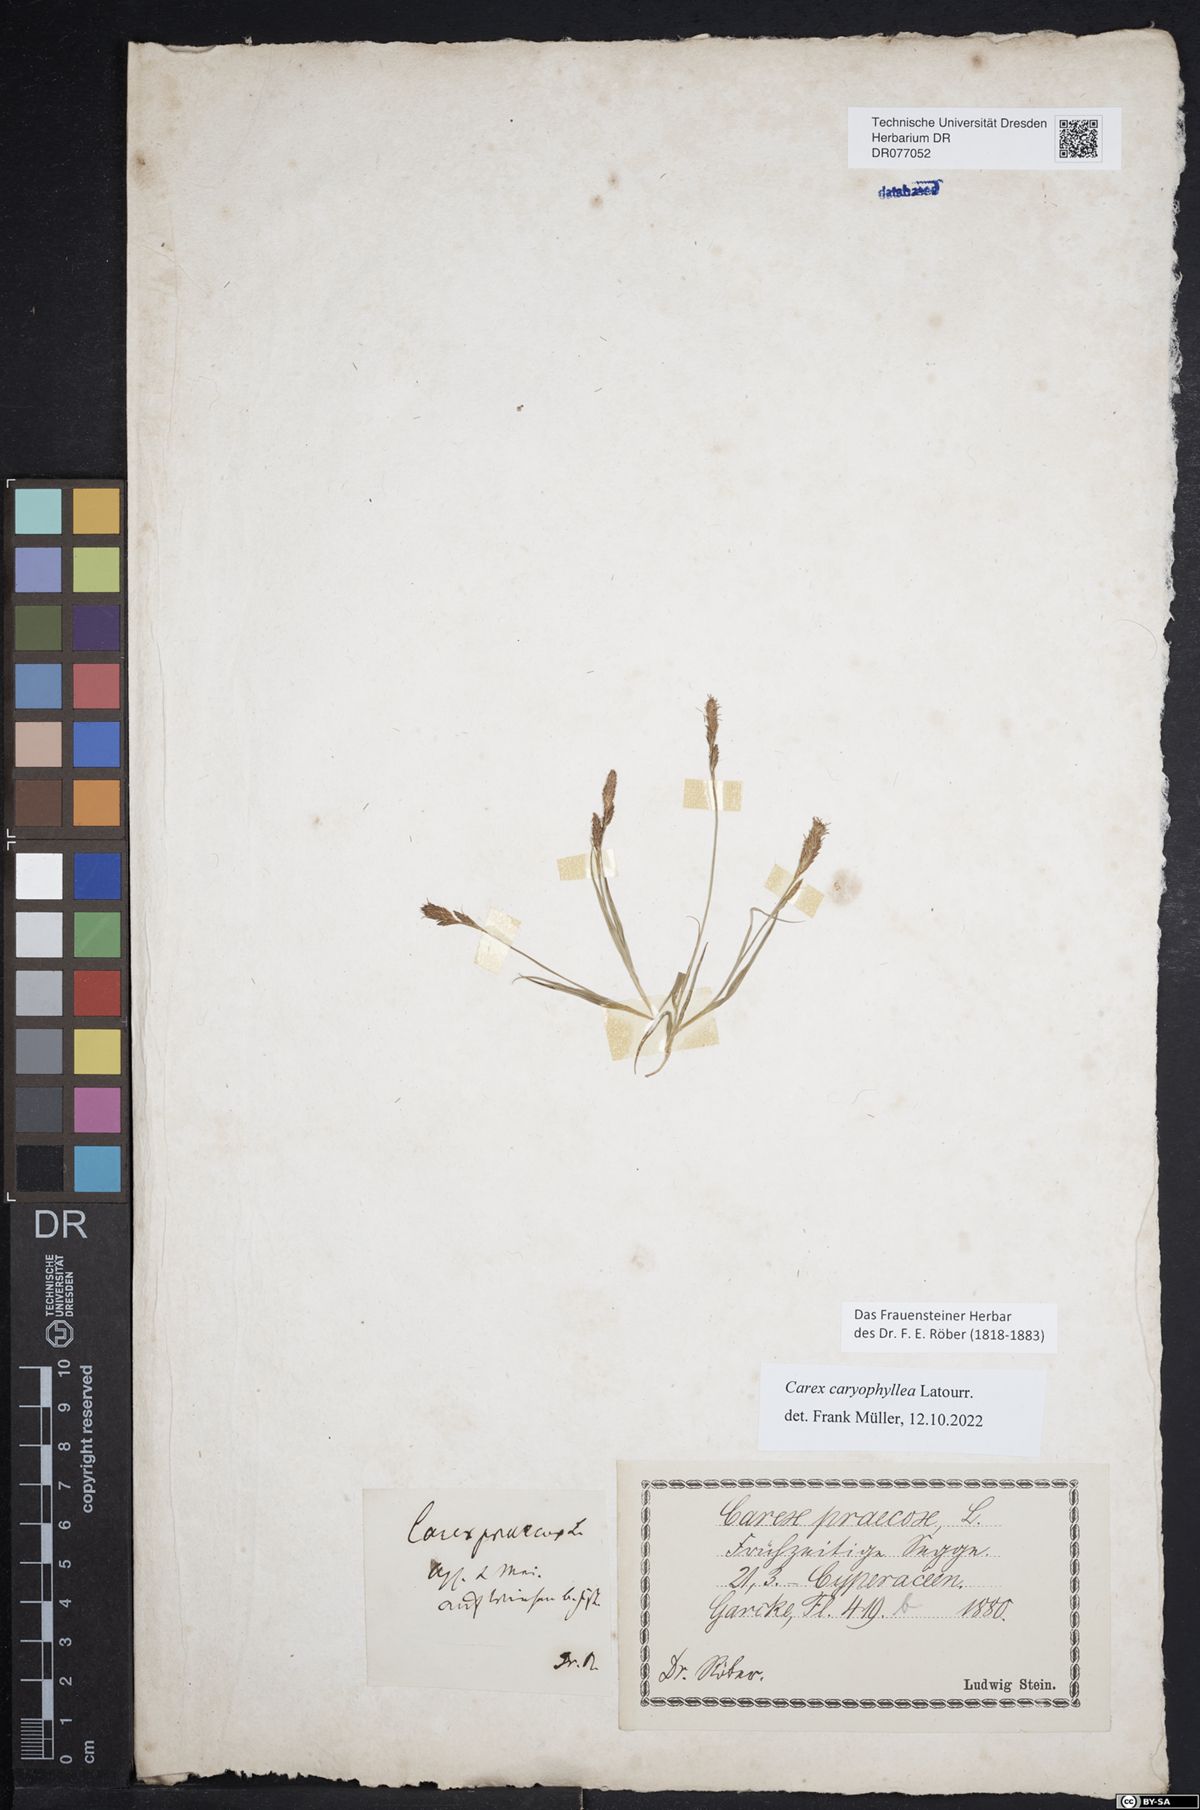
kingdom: Plantae
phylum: Tracheophyta
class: Liliopsida
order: Poales
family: Cyperaceae
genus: Carex
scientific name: Carex caryophyllea
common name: Spring sedge
